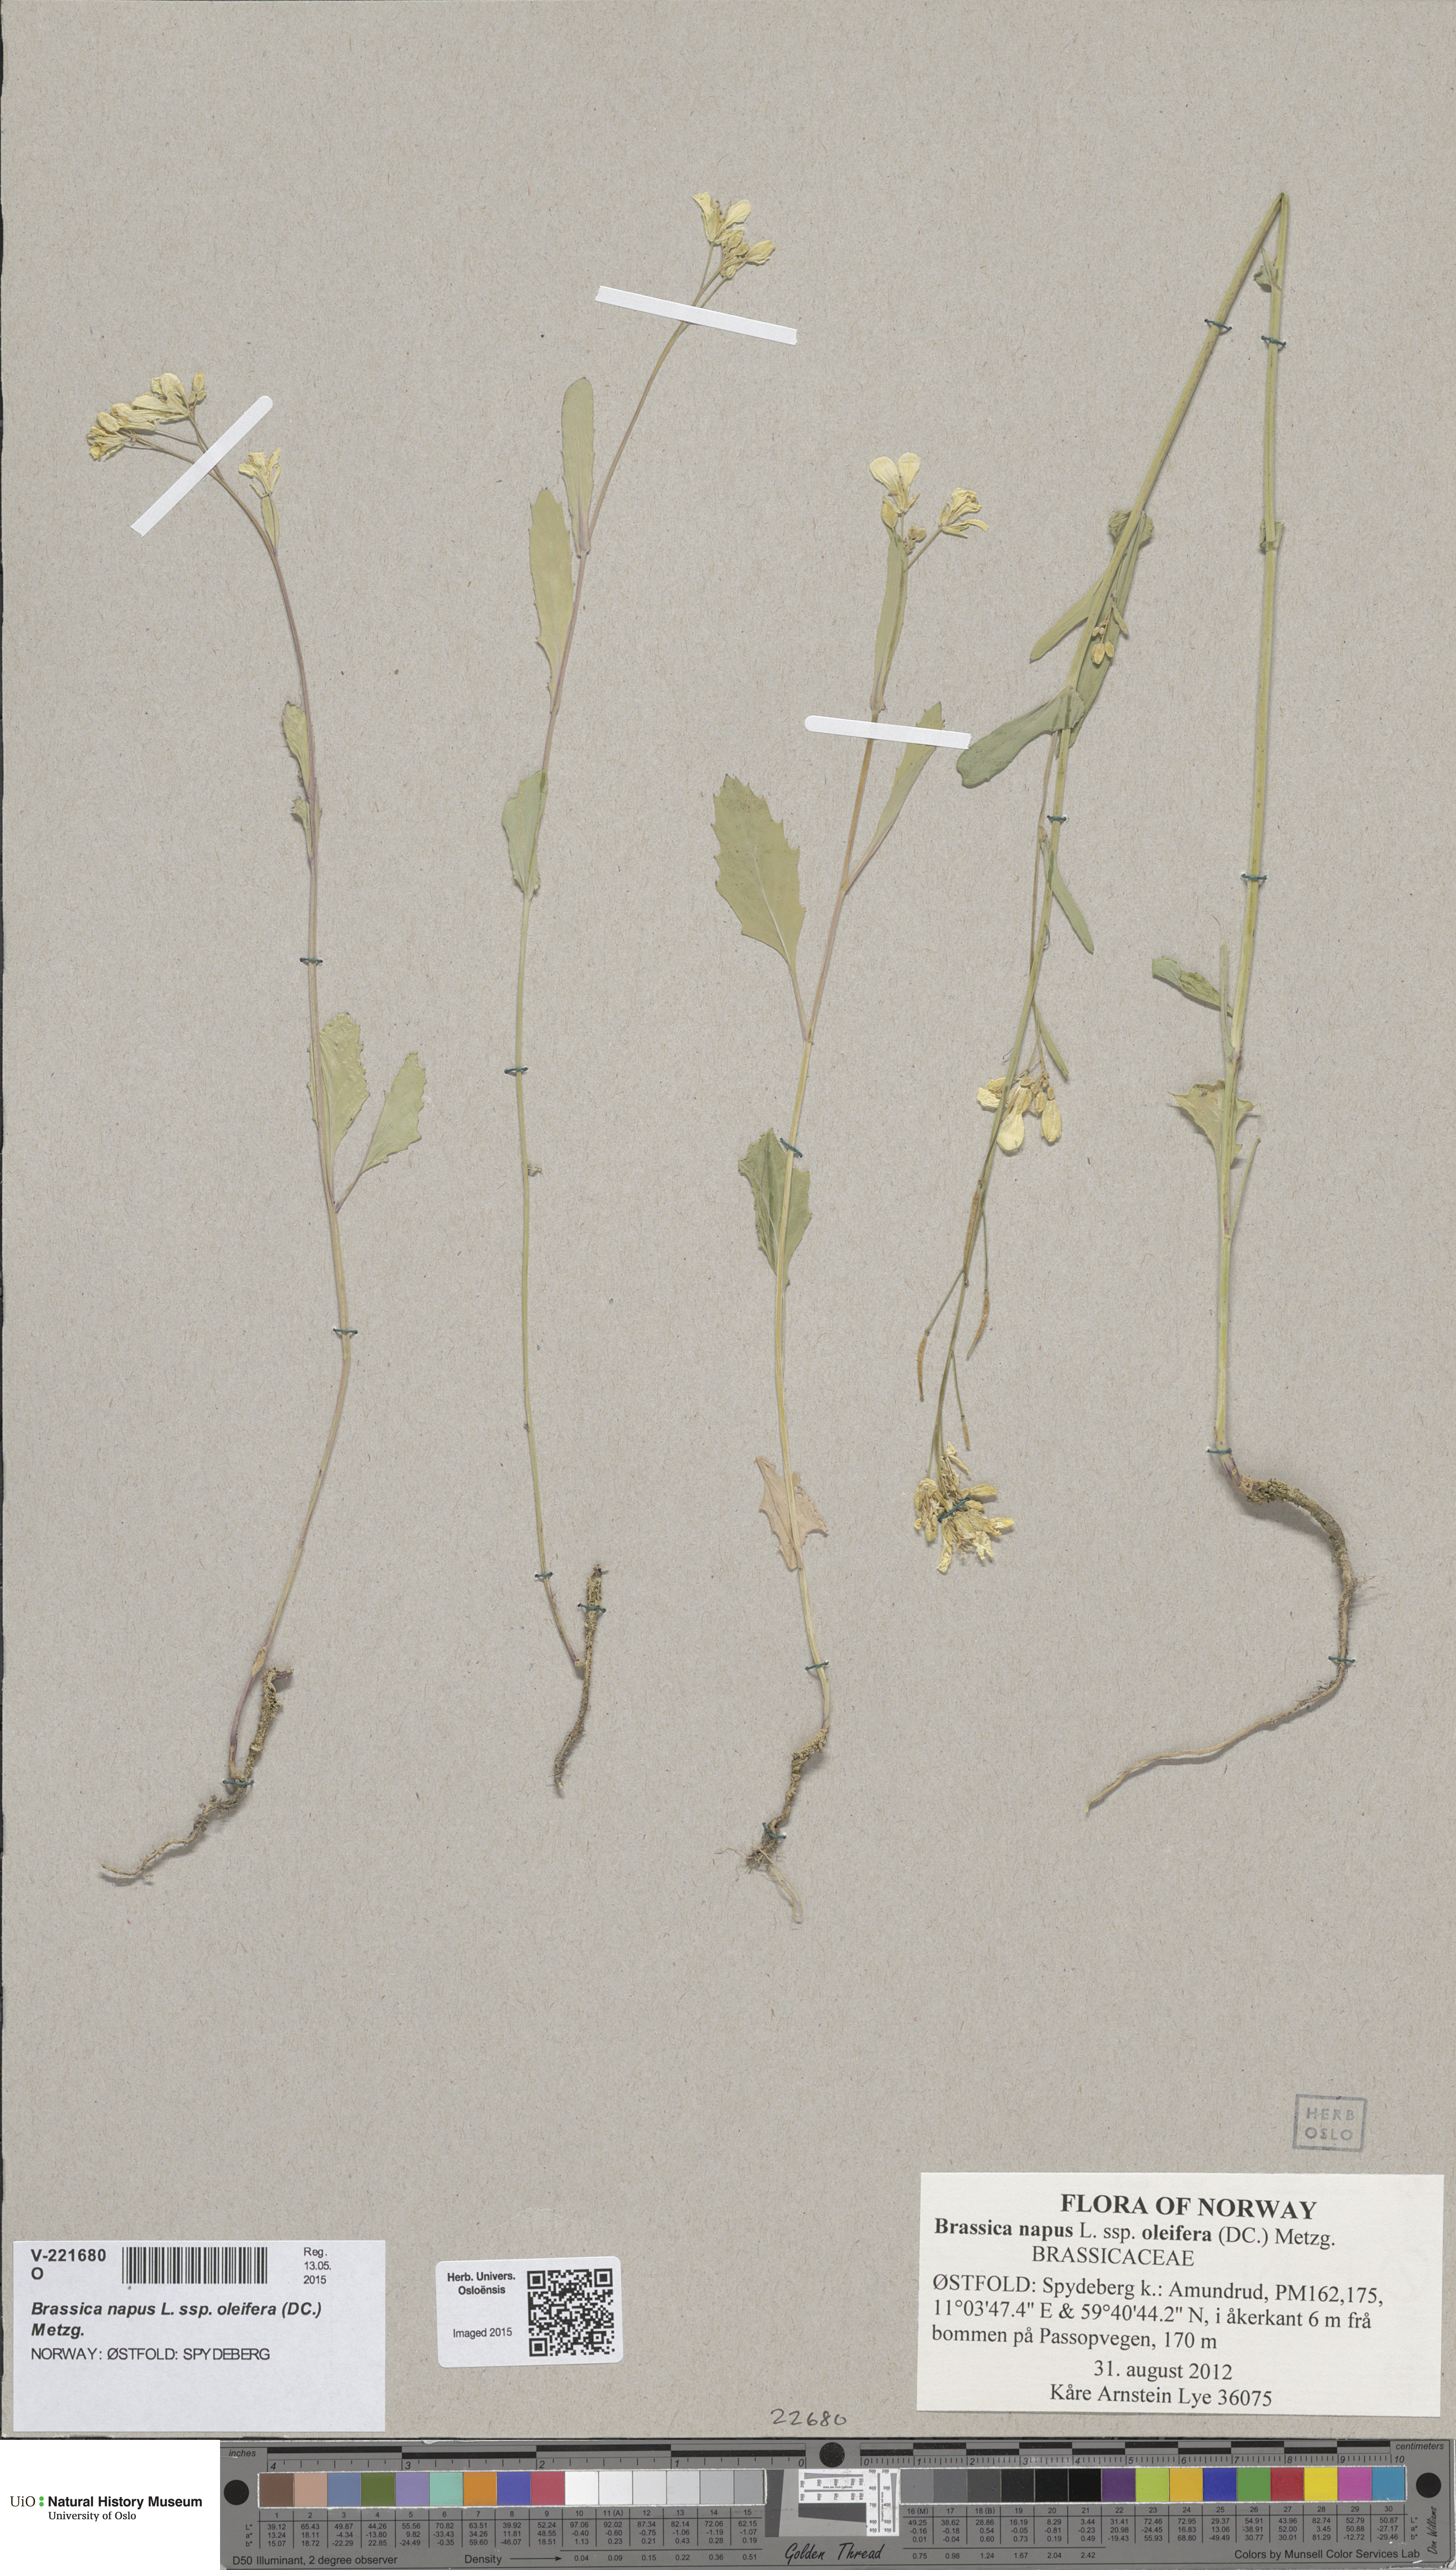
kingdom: Plantae
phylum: Tracheophyta
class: Magnoliopsida
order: Brassicales
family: Brassicaceae
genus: Brassica
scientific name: Brassica napus
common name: Rape
